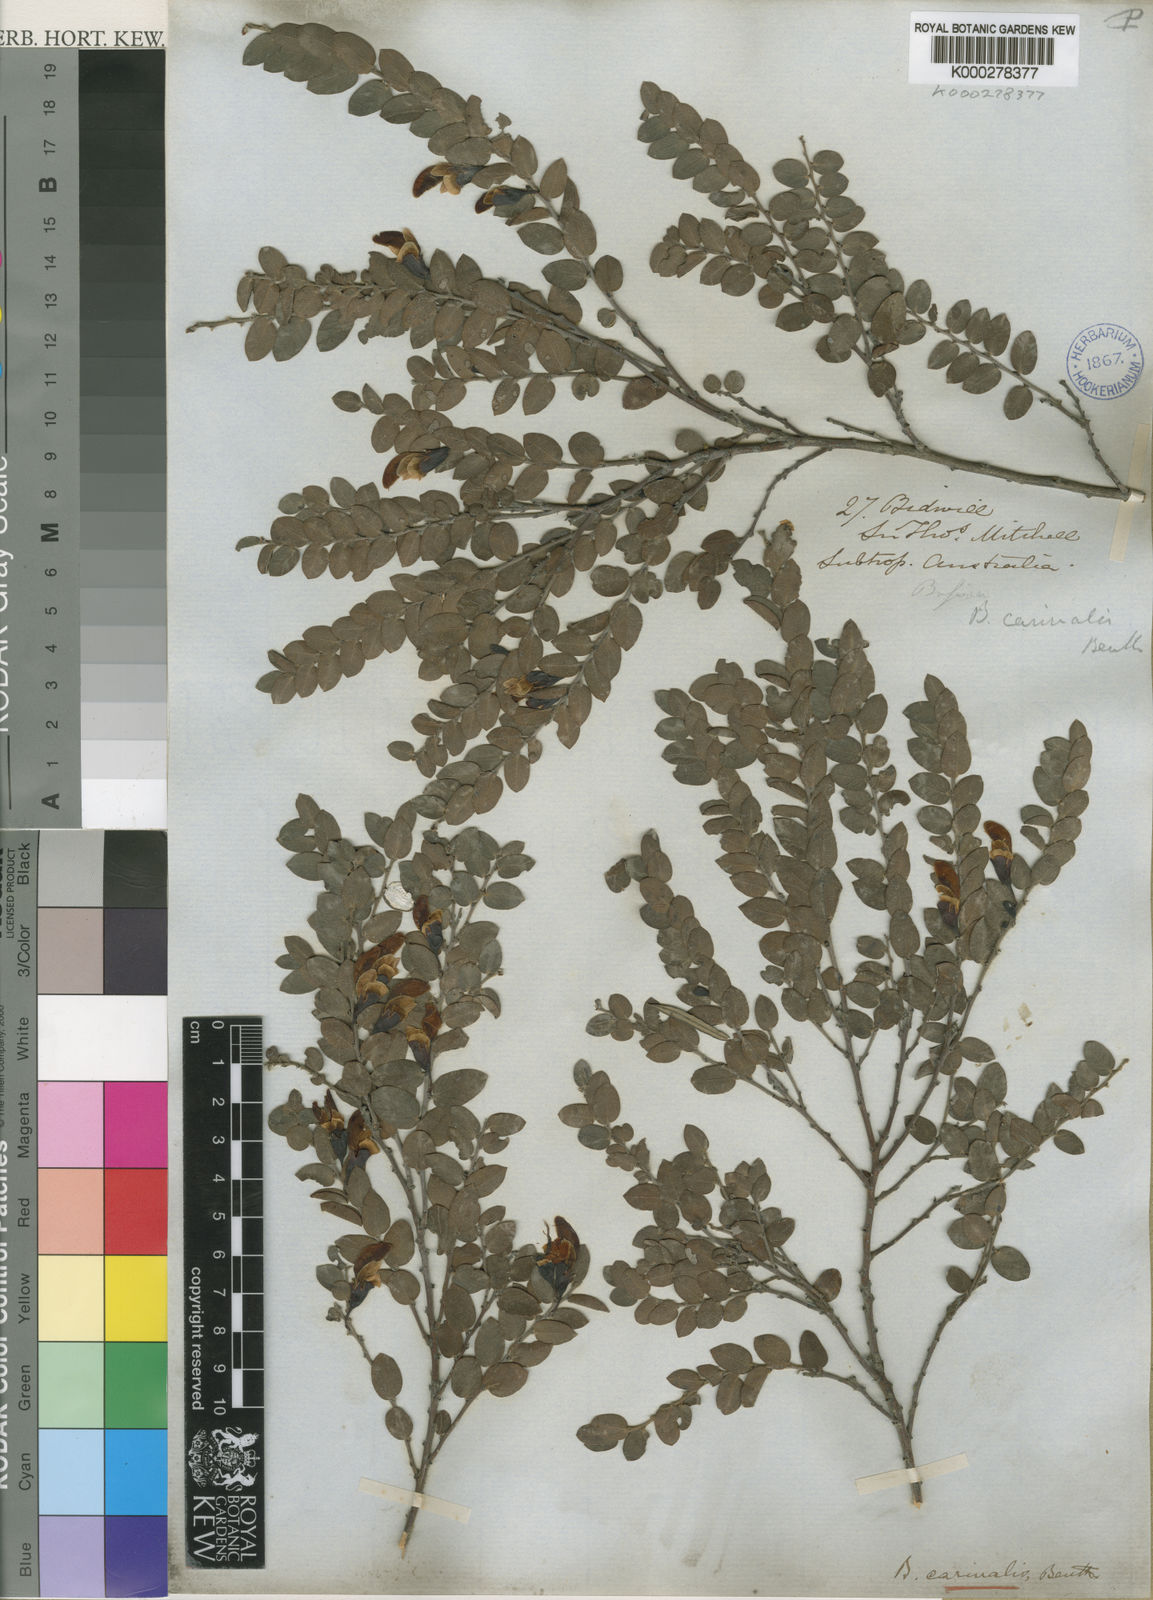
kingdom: Plantae
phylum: Tracheophyta
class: Magnoliopsida
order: Fabales
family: Fabaceae
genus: Bossiaea
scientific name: Bossiaea carinalis
